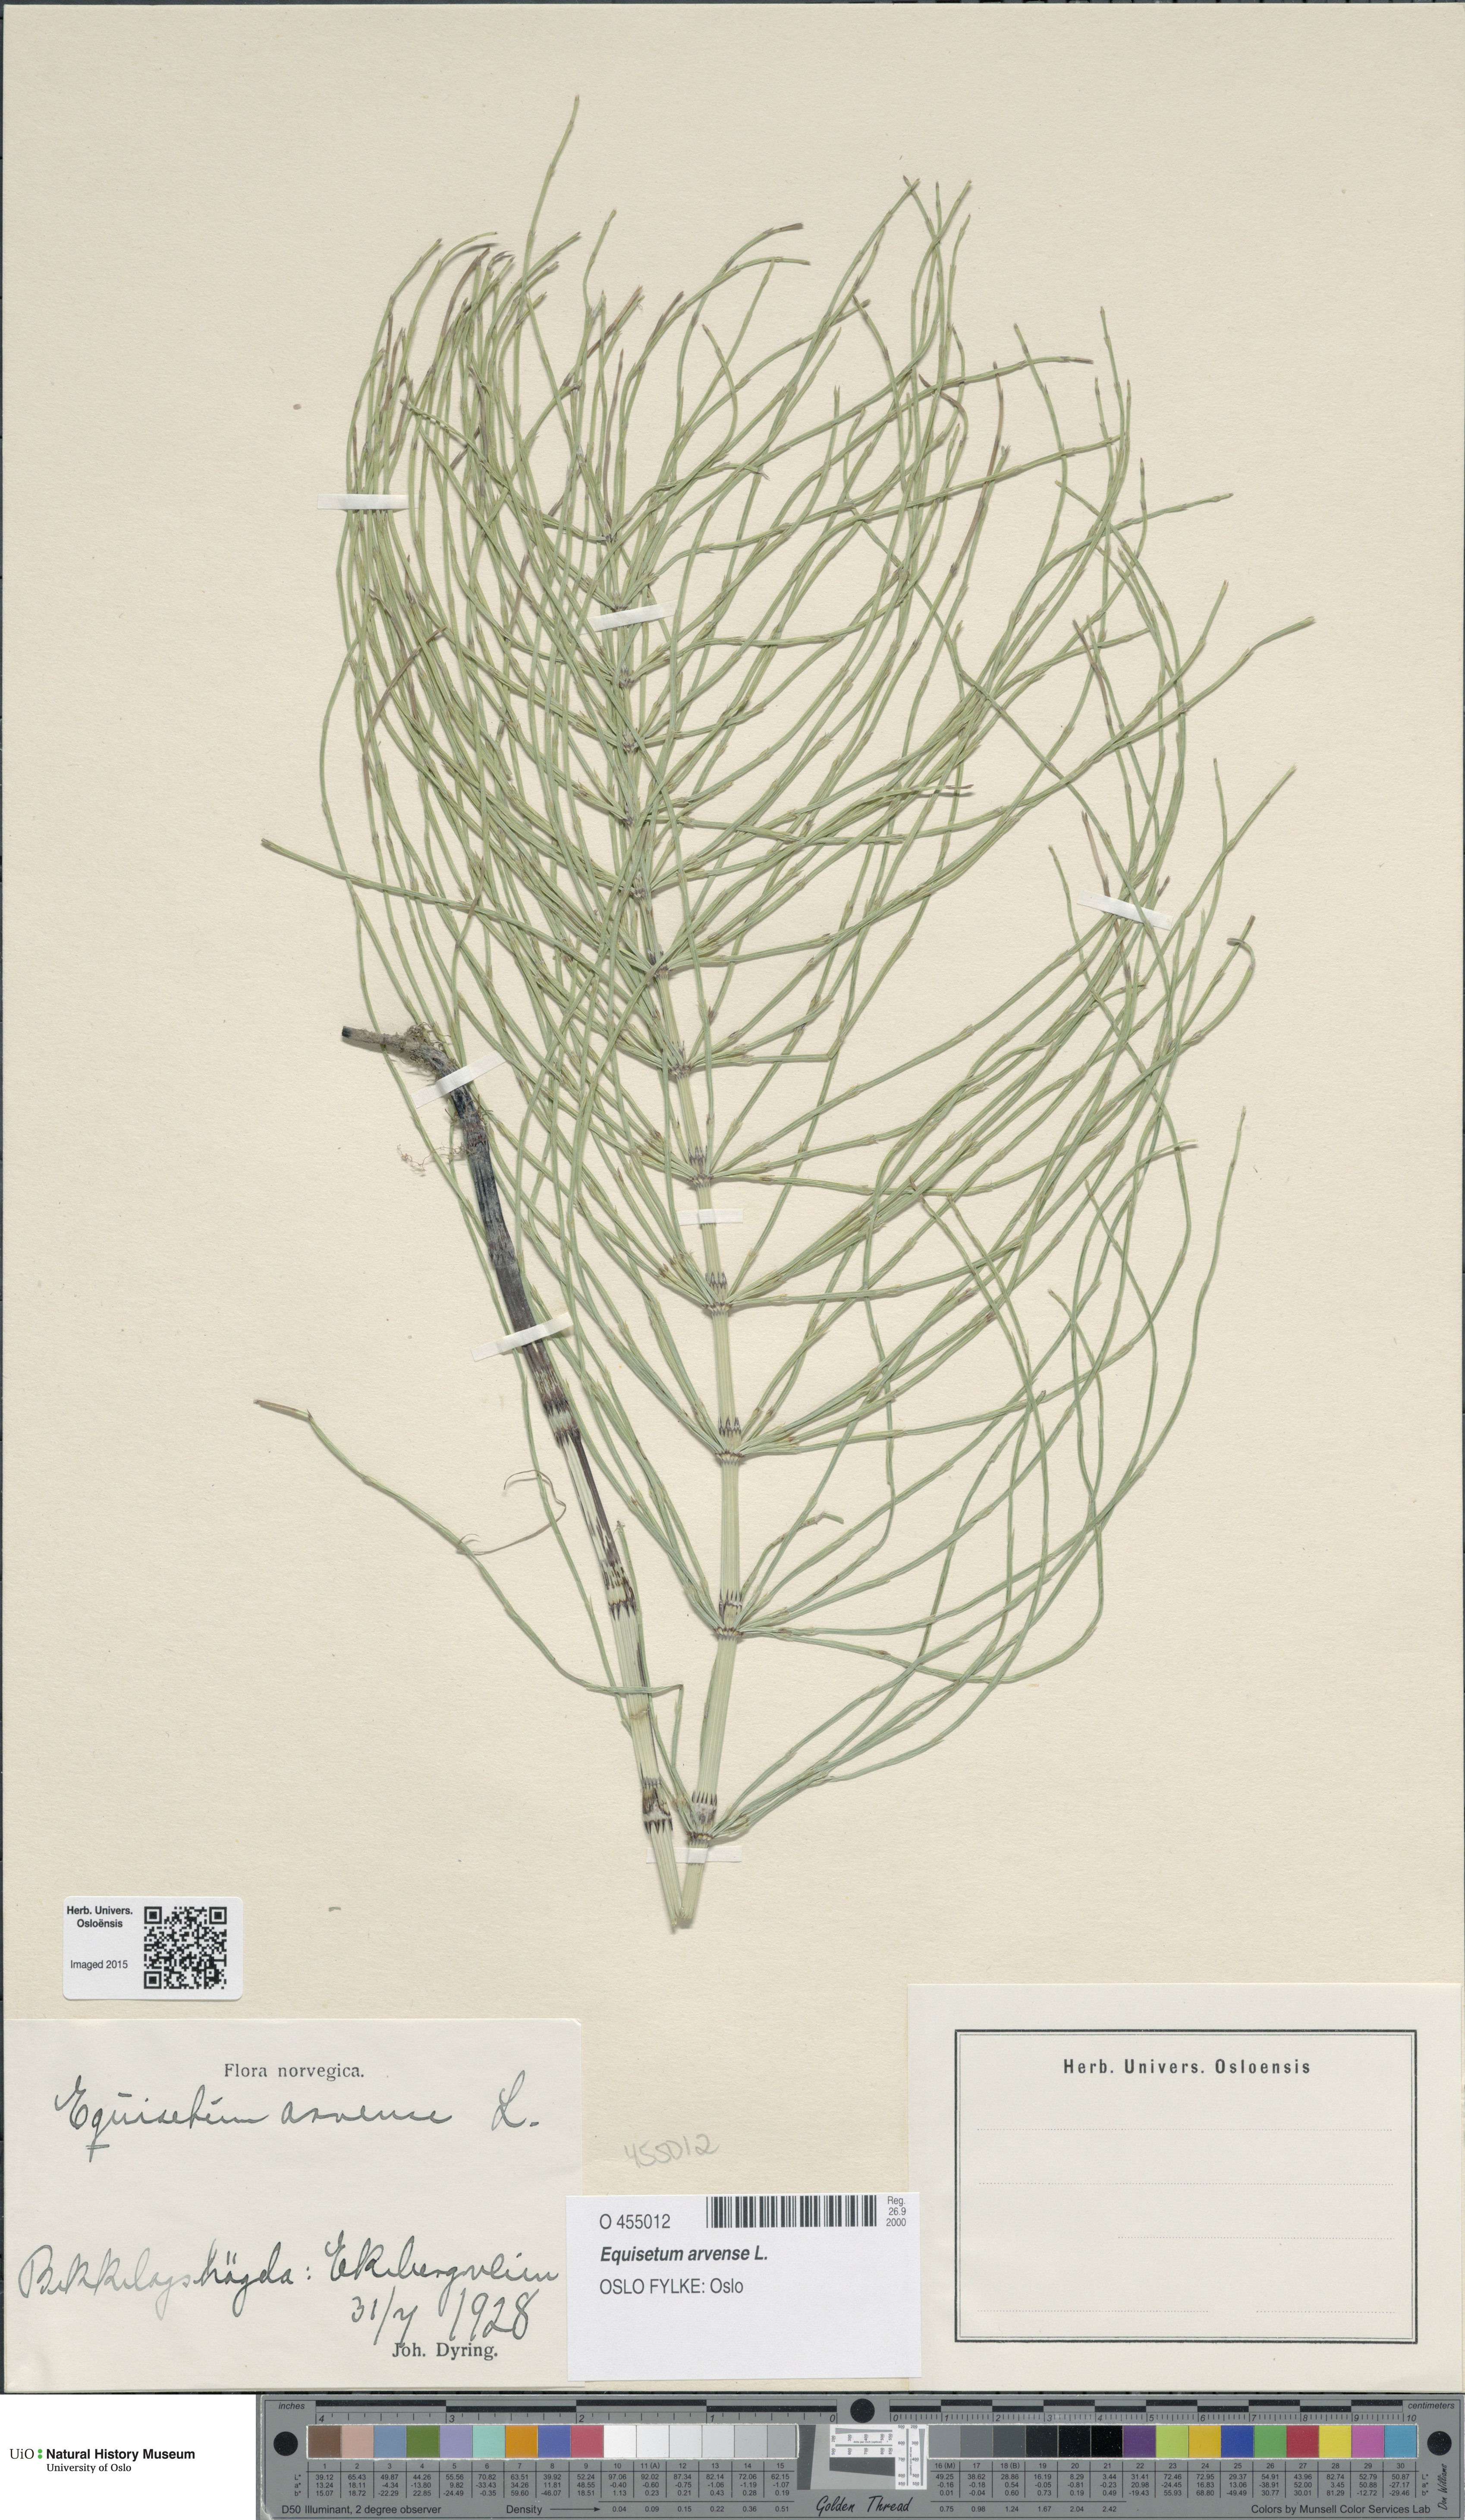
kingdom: Plantae
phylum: Tracheophyta
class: Polypodiopsida
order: Equisetales
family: Equisetaceae
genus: Equisetum
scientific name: Equisetum arvense
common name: Field horsetail
